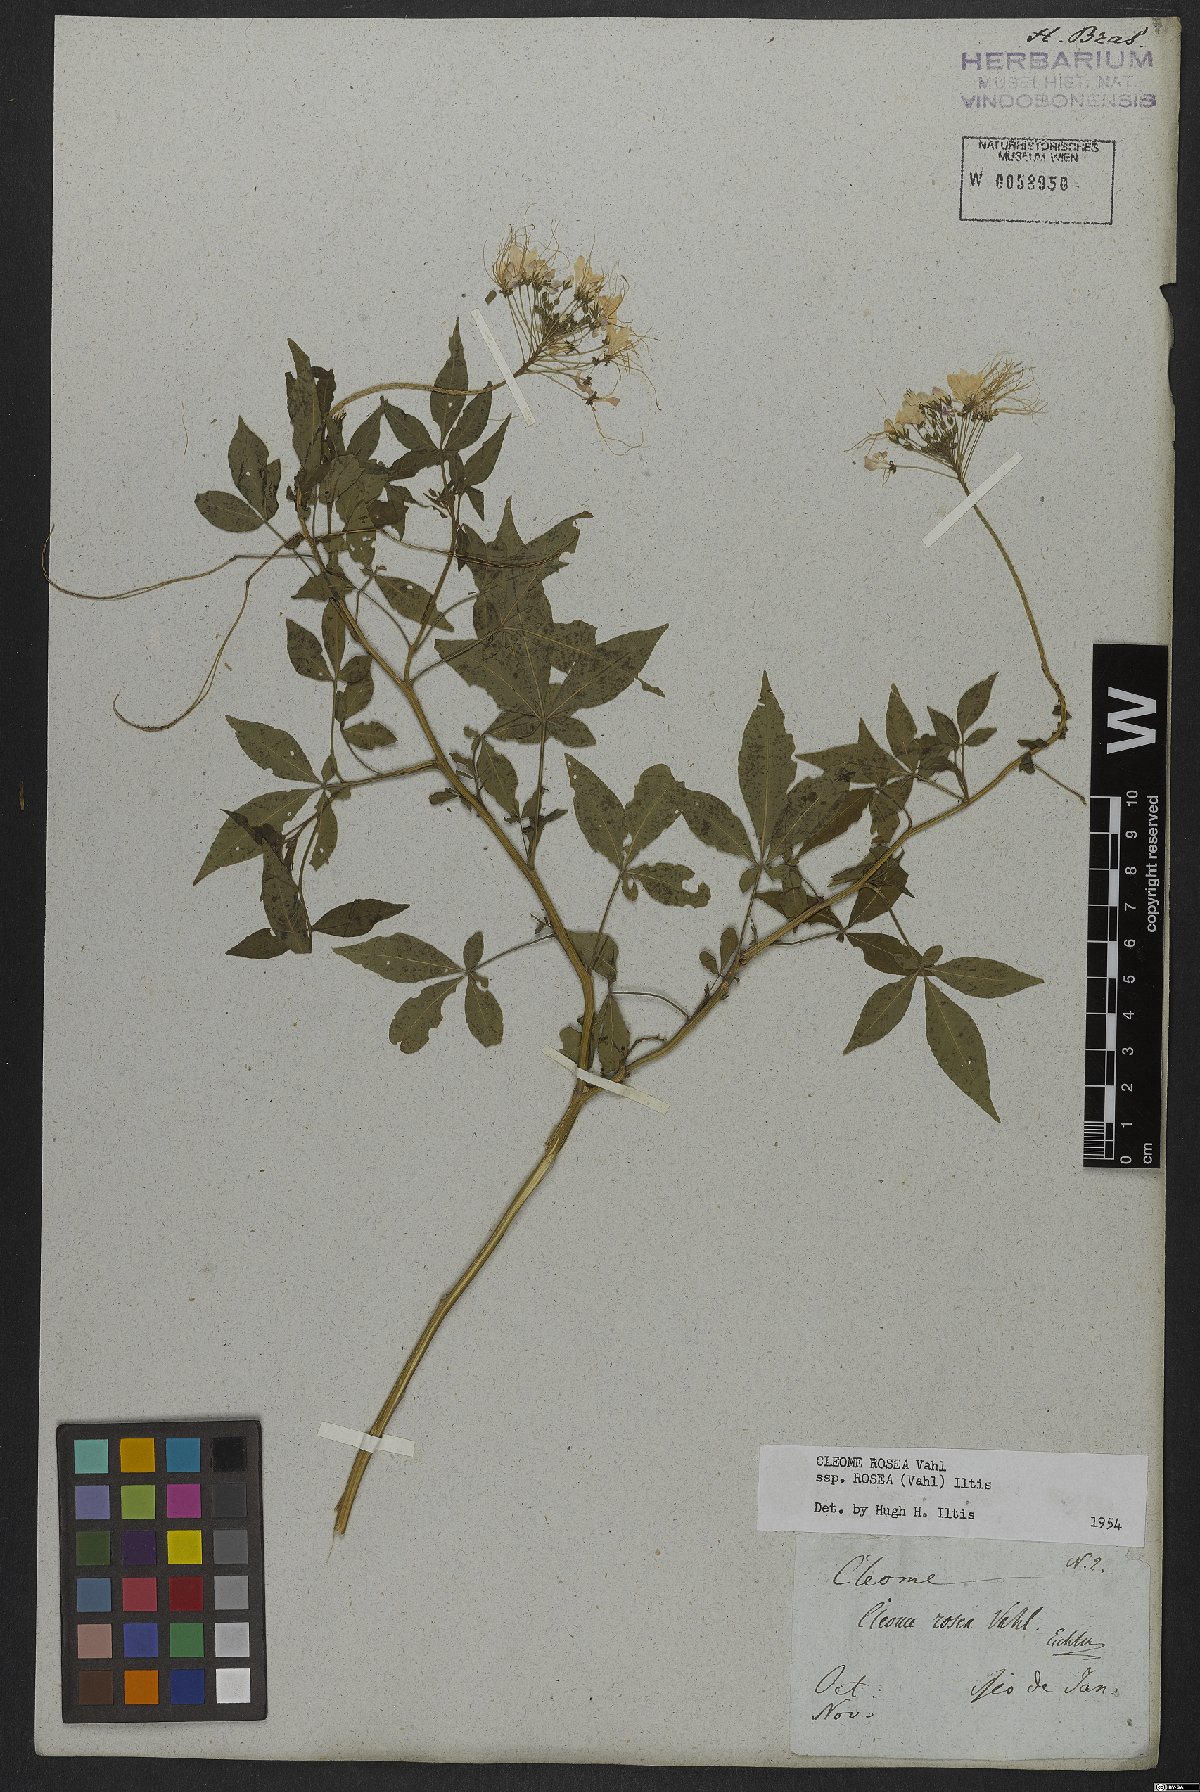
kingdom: Plantae
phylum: Tracheophyta
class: Magnoliopsida
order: Brassicales
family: Cleomaceae
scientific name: Cleomaceae
